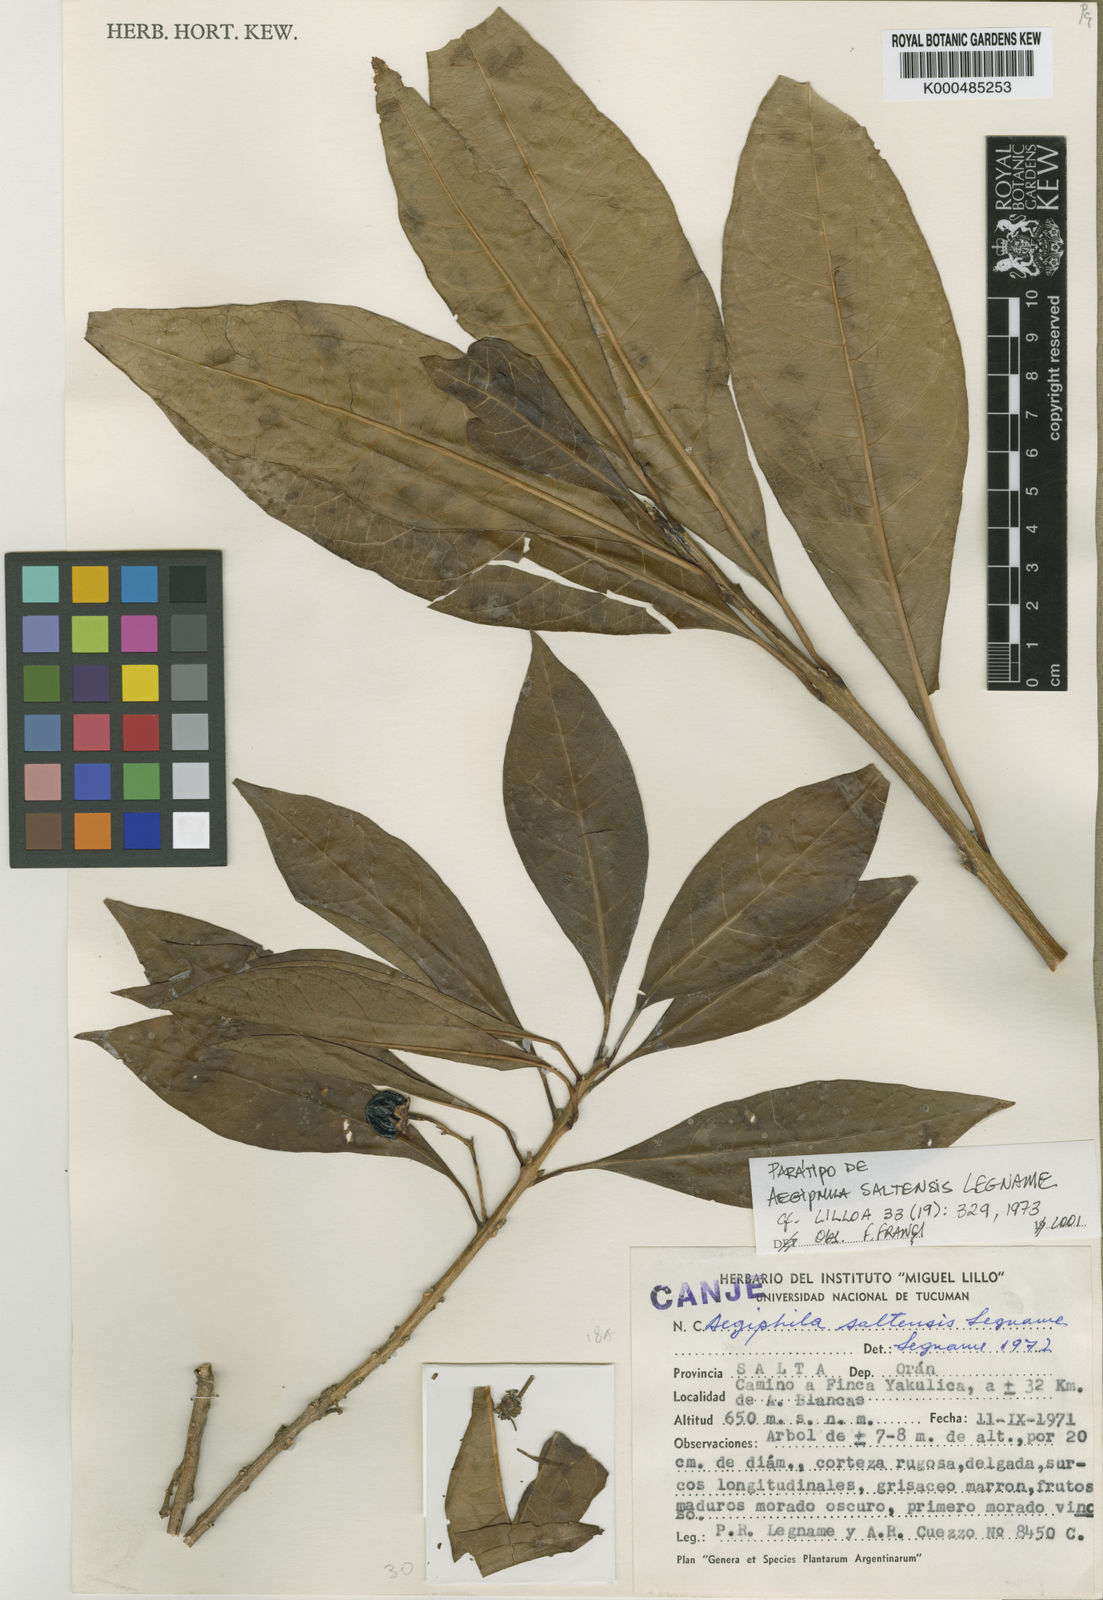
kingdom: Plantae
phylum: Tracheophyta
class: Magnoliopsida
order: Lamiales
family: Lamiaceae
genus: Aegiphila
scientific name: Aegiphila saltensis
